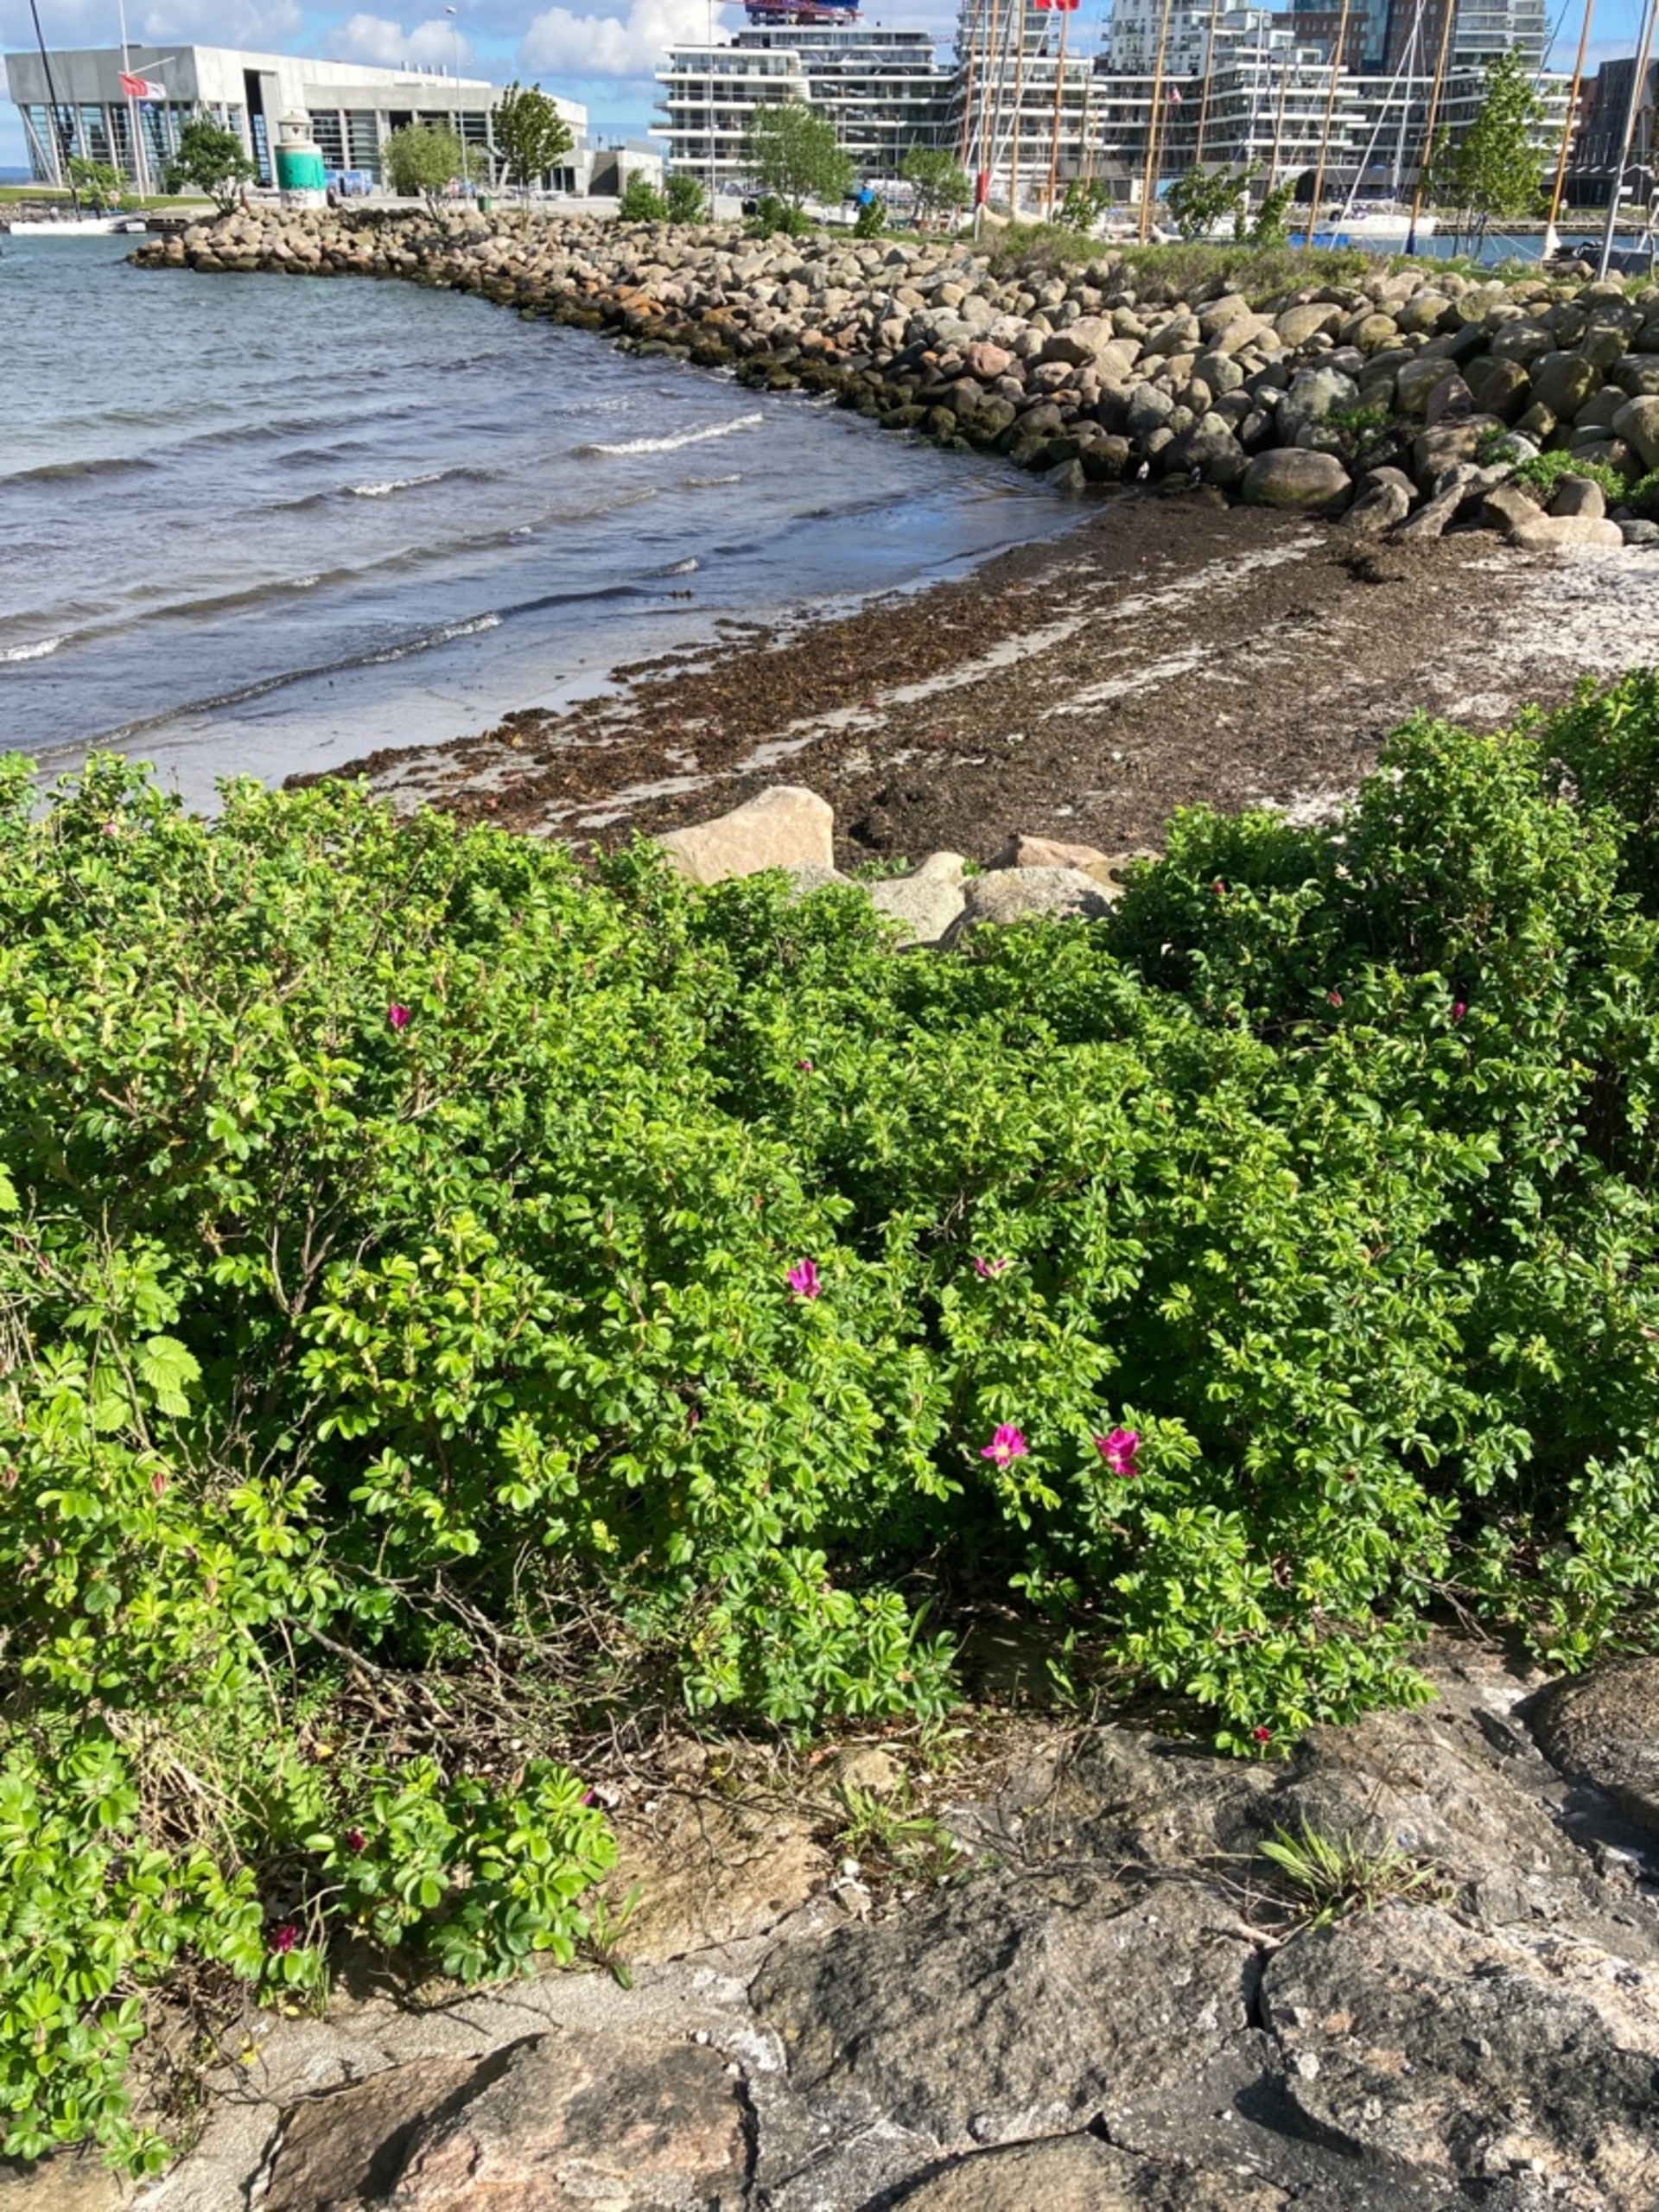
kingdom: Plantae
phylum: Tracheophyta
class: Magnoliopsida
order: Rosales
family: Rosaceae
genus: Rosa
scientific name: Rosa rugosa
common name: Rynket rose
